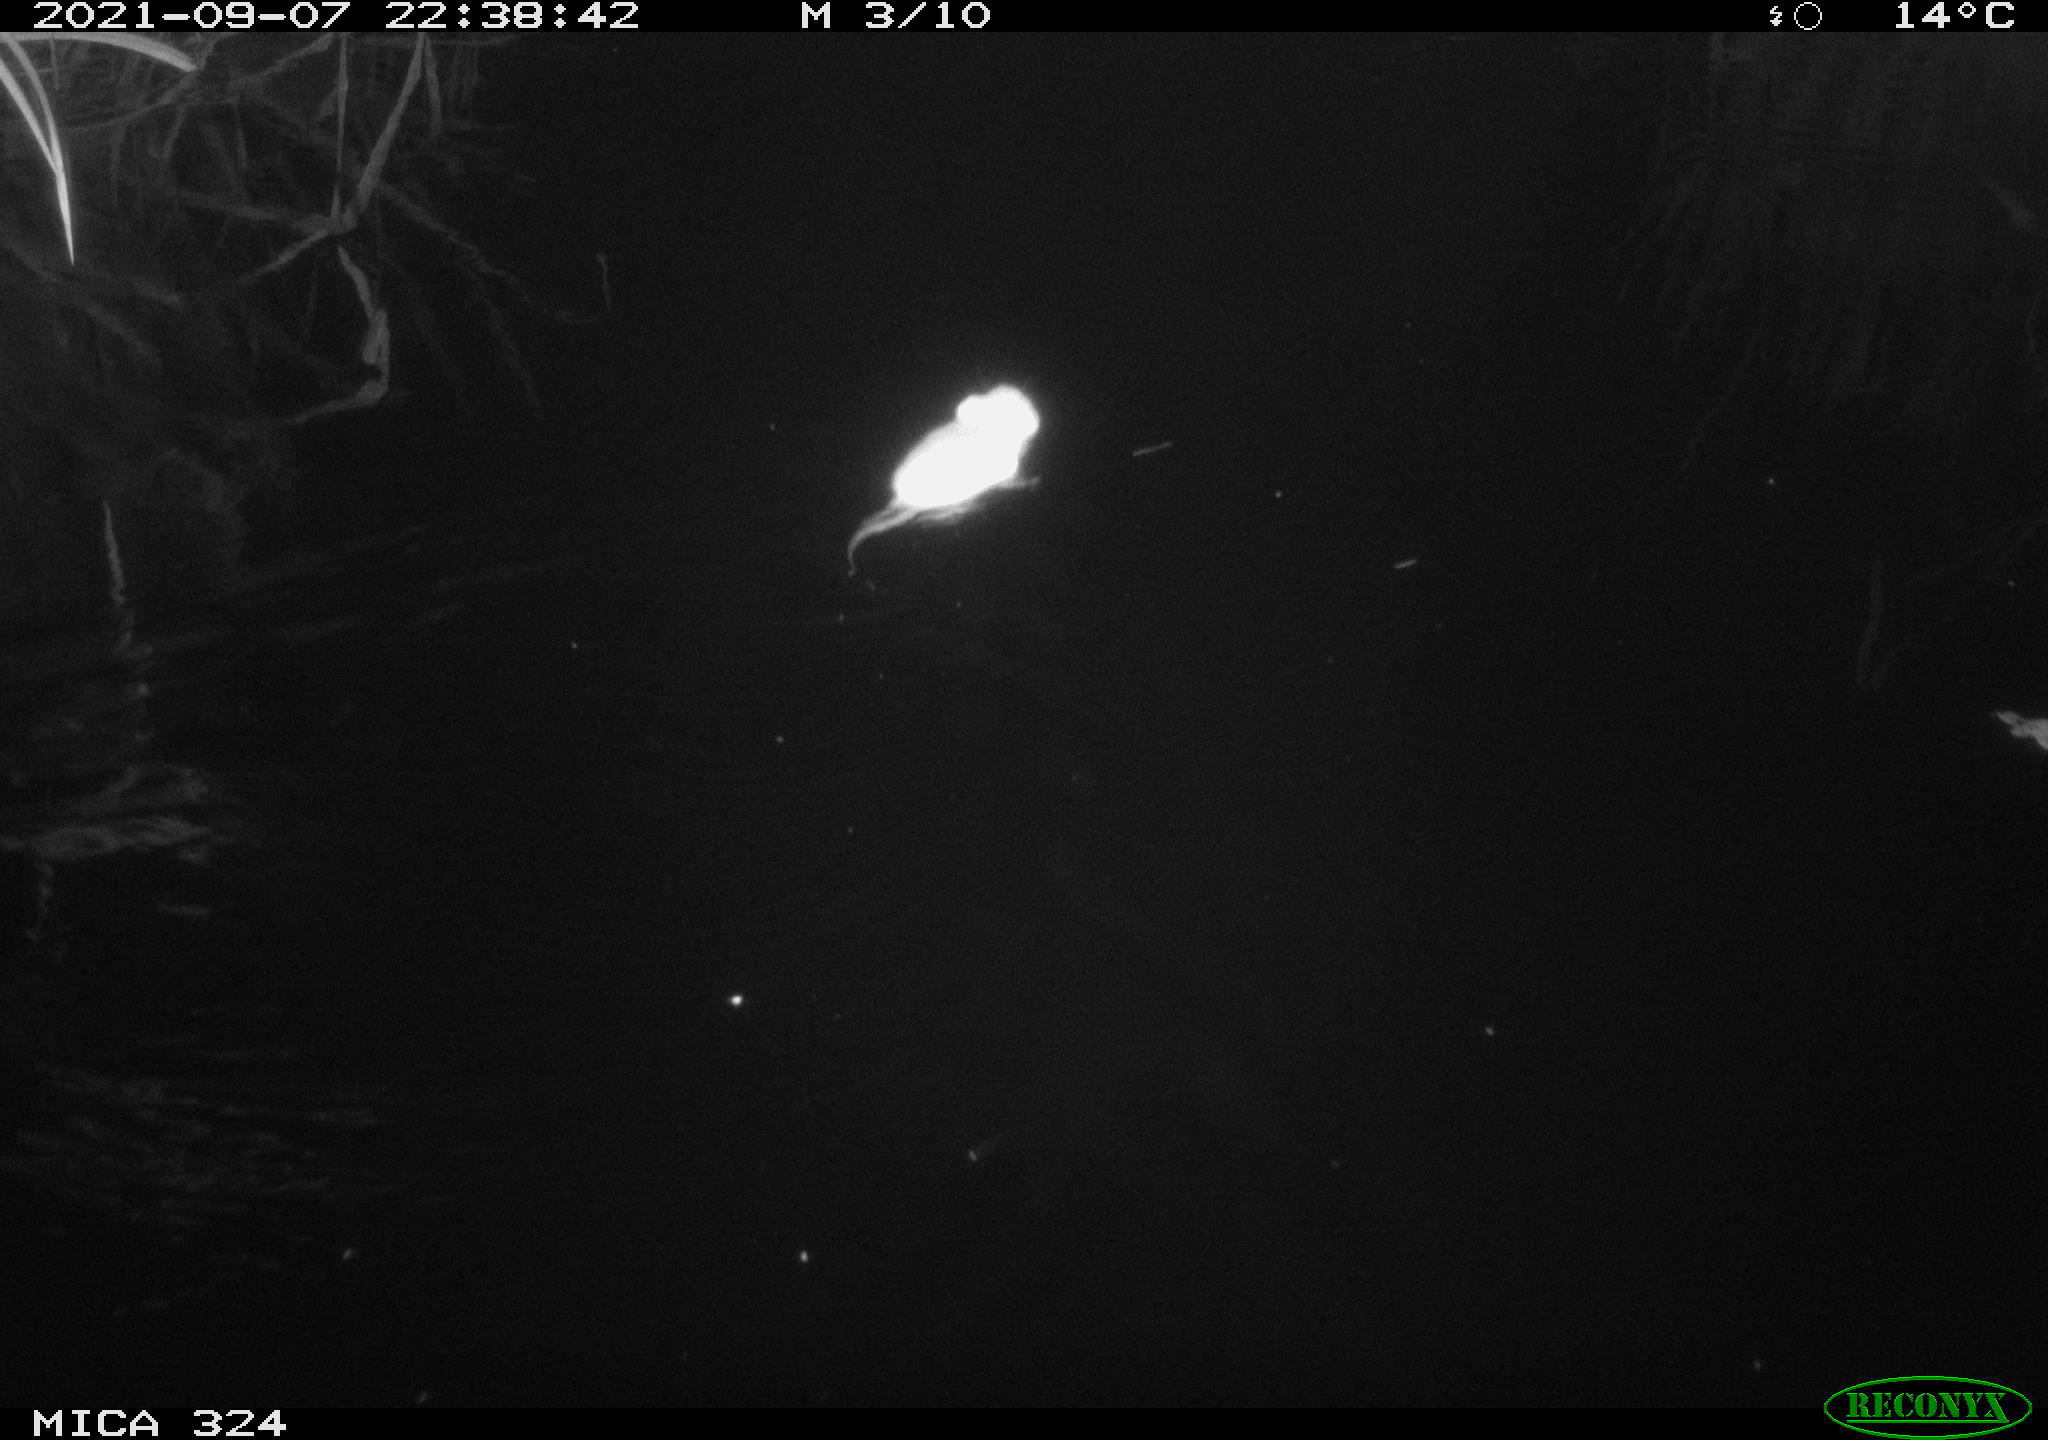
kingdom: Animalia
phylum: Chordata
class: Mammalia
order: Rodentia
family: Cricetidae
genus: Ondatra
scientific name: Ondatra zibethicus
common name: Muskrat
